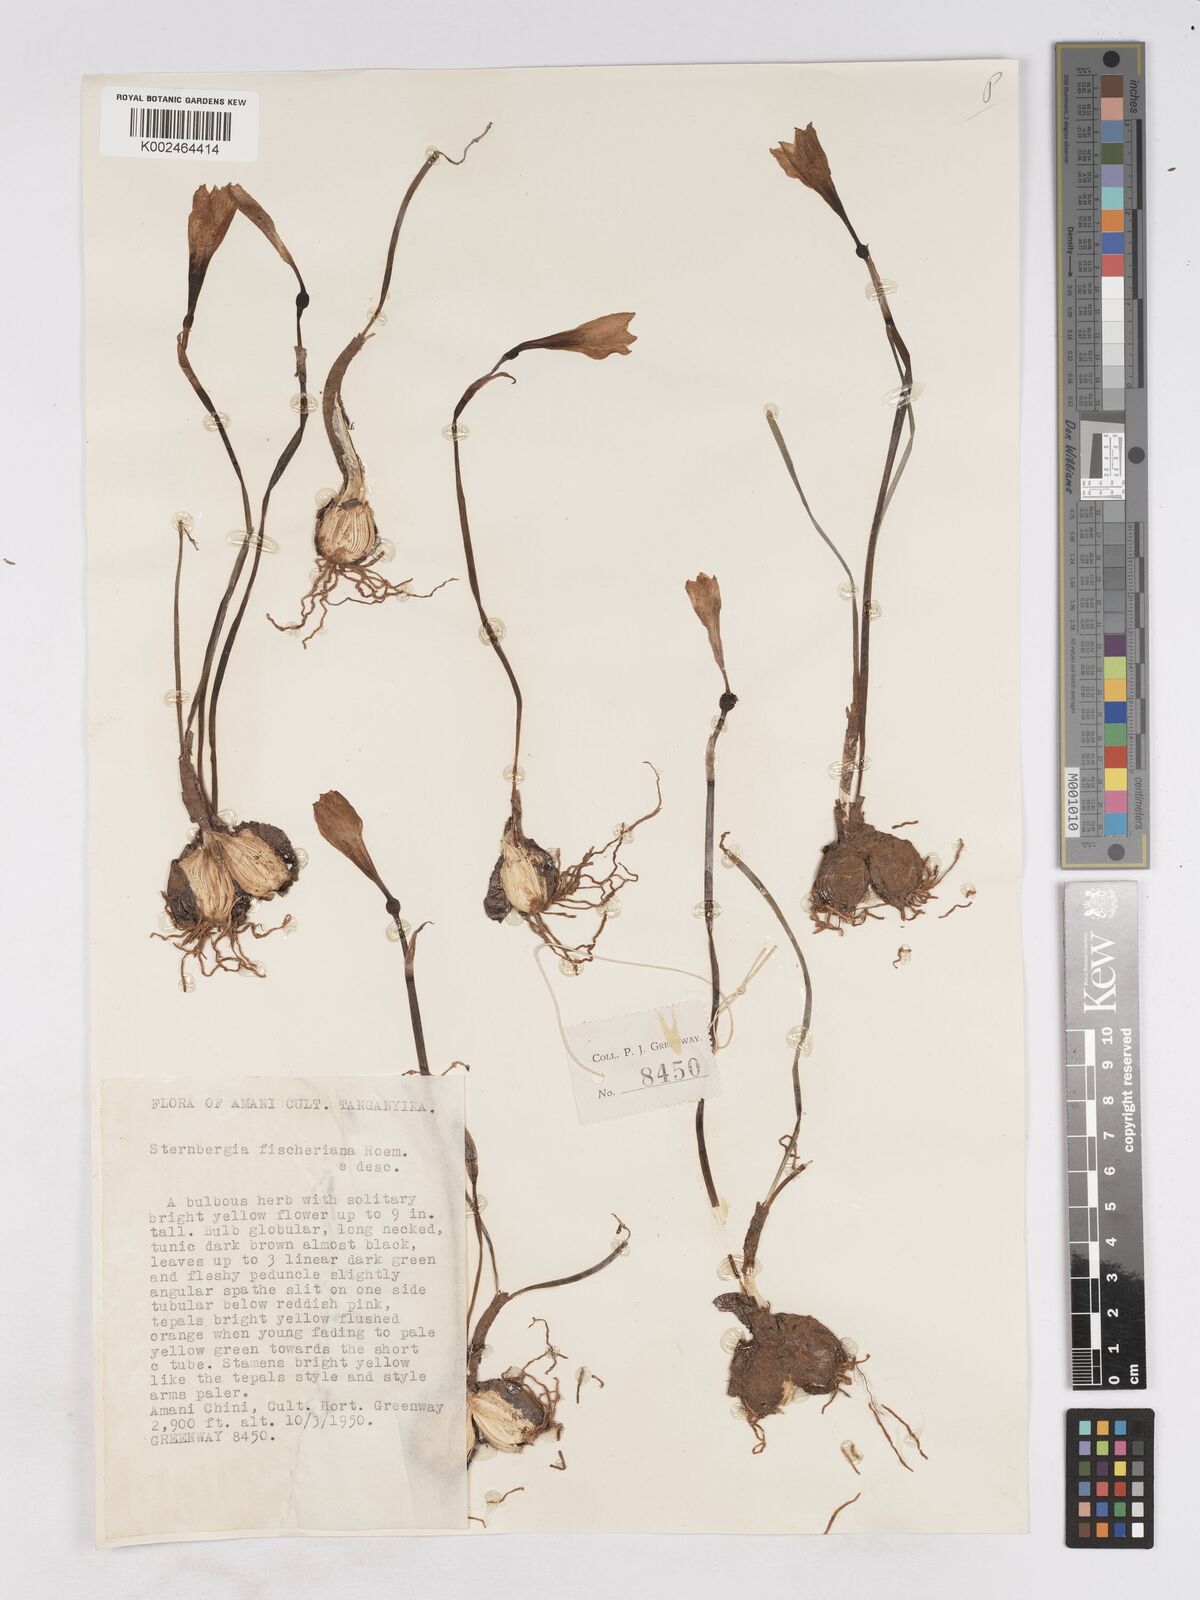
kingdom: Plantae
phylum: Tracheophyta
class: Liliopsida
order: Asparagales
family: Amaryllidaceae
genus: Zephyranthes
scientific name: Zephyranthes citrina
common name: Citron zephyrlily
